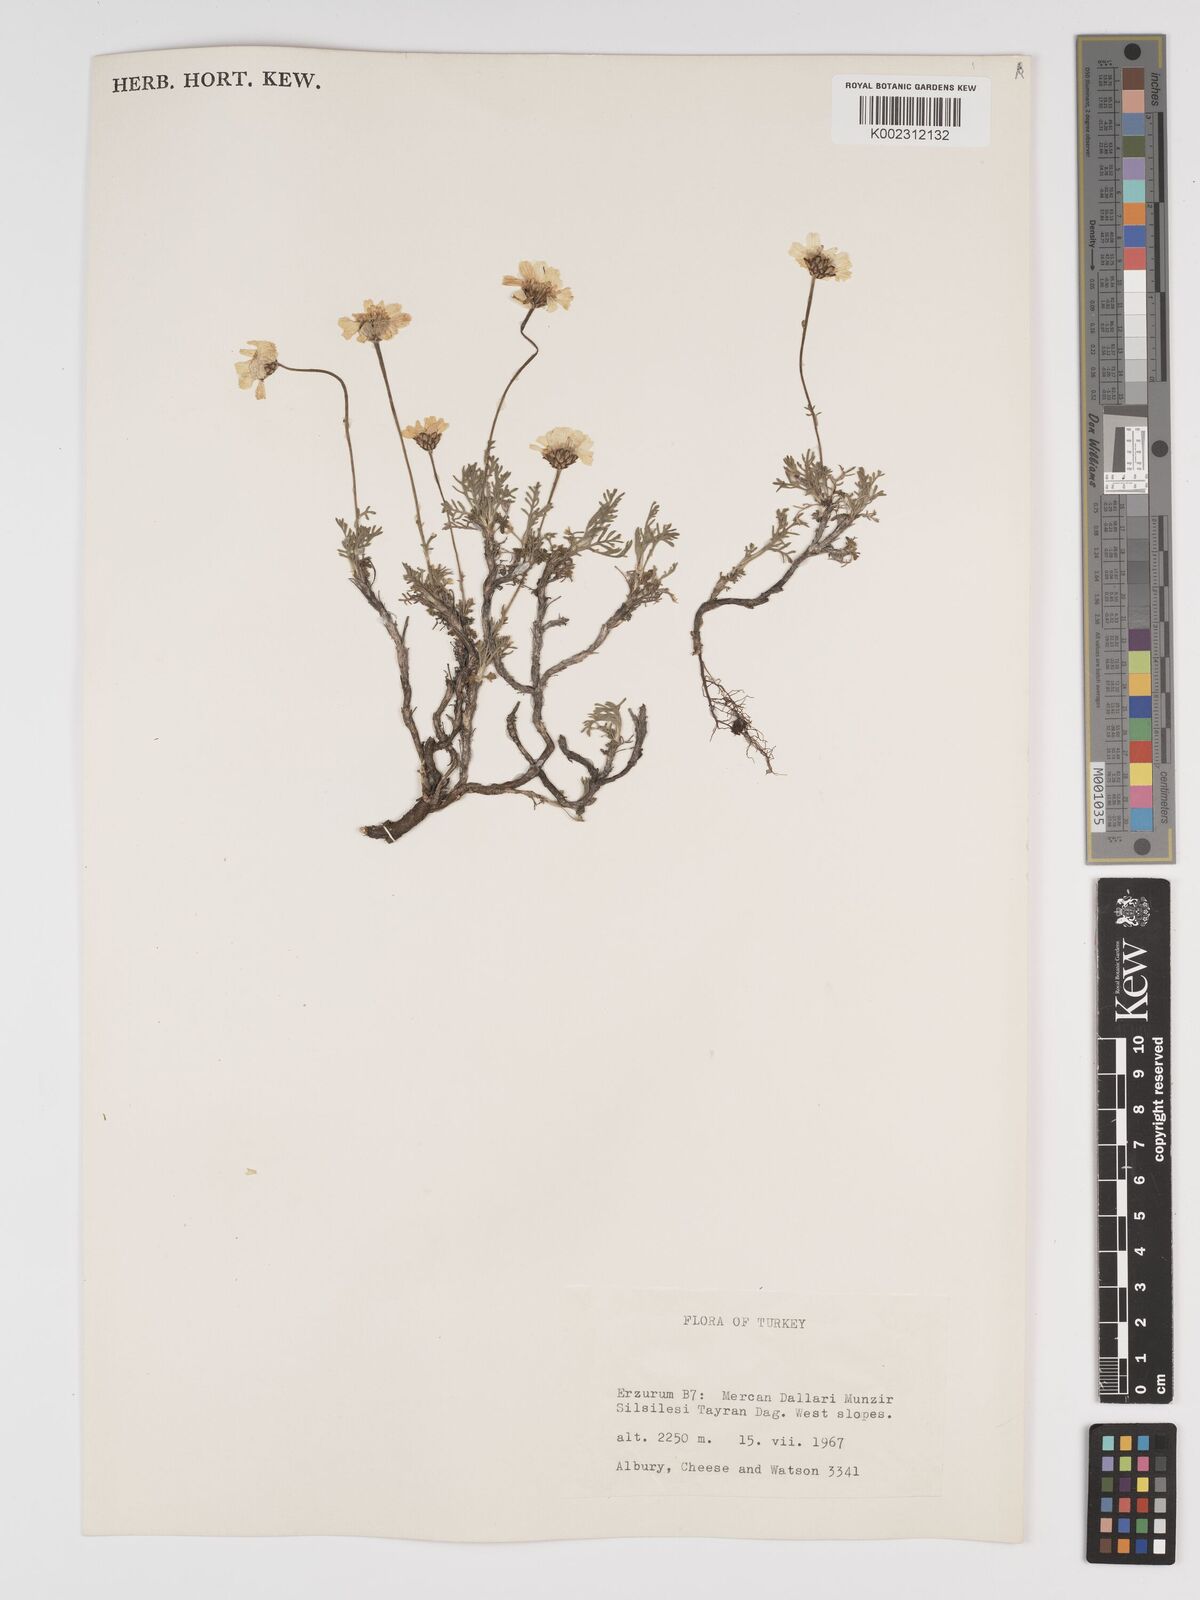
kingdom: Plantae
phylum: Tracheophyta
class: Magnoliopsida
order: Asterales
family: Asteraceae
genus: Tanacetum
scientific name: Tanacetum niveum
